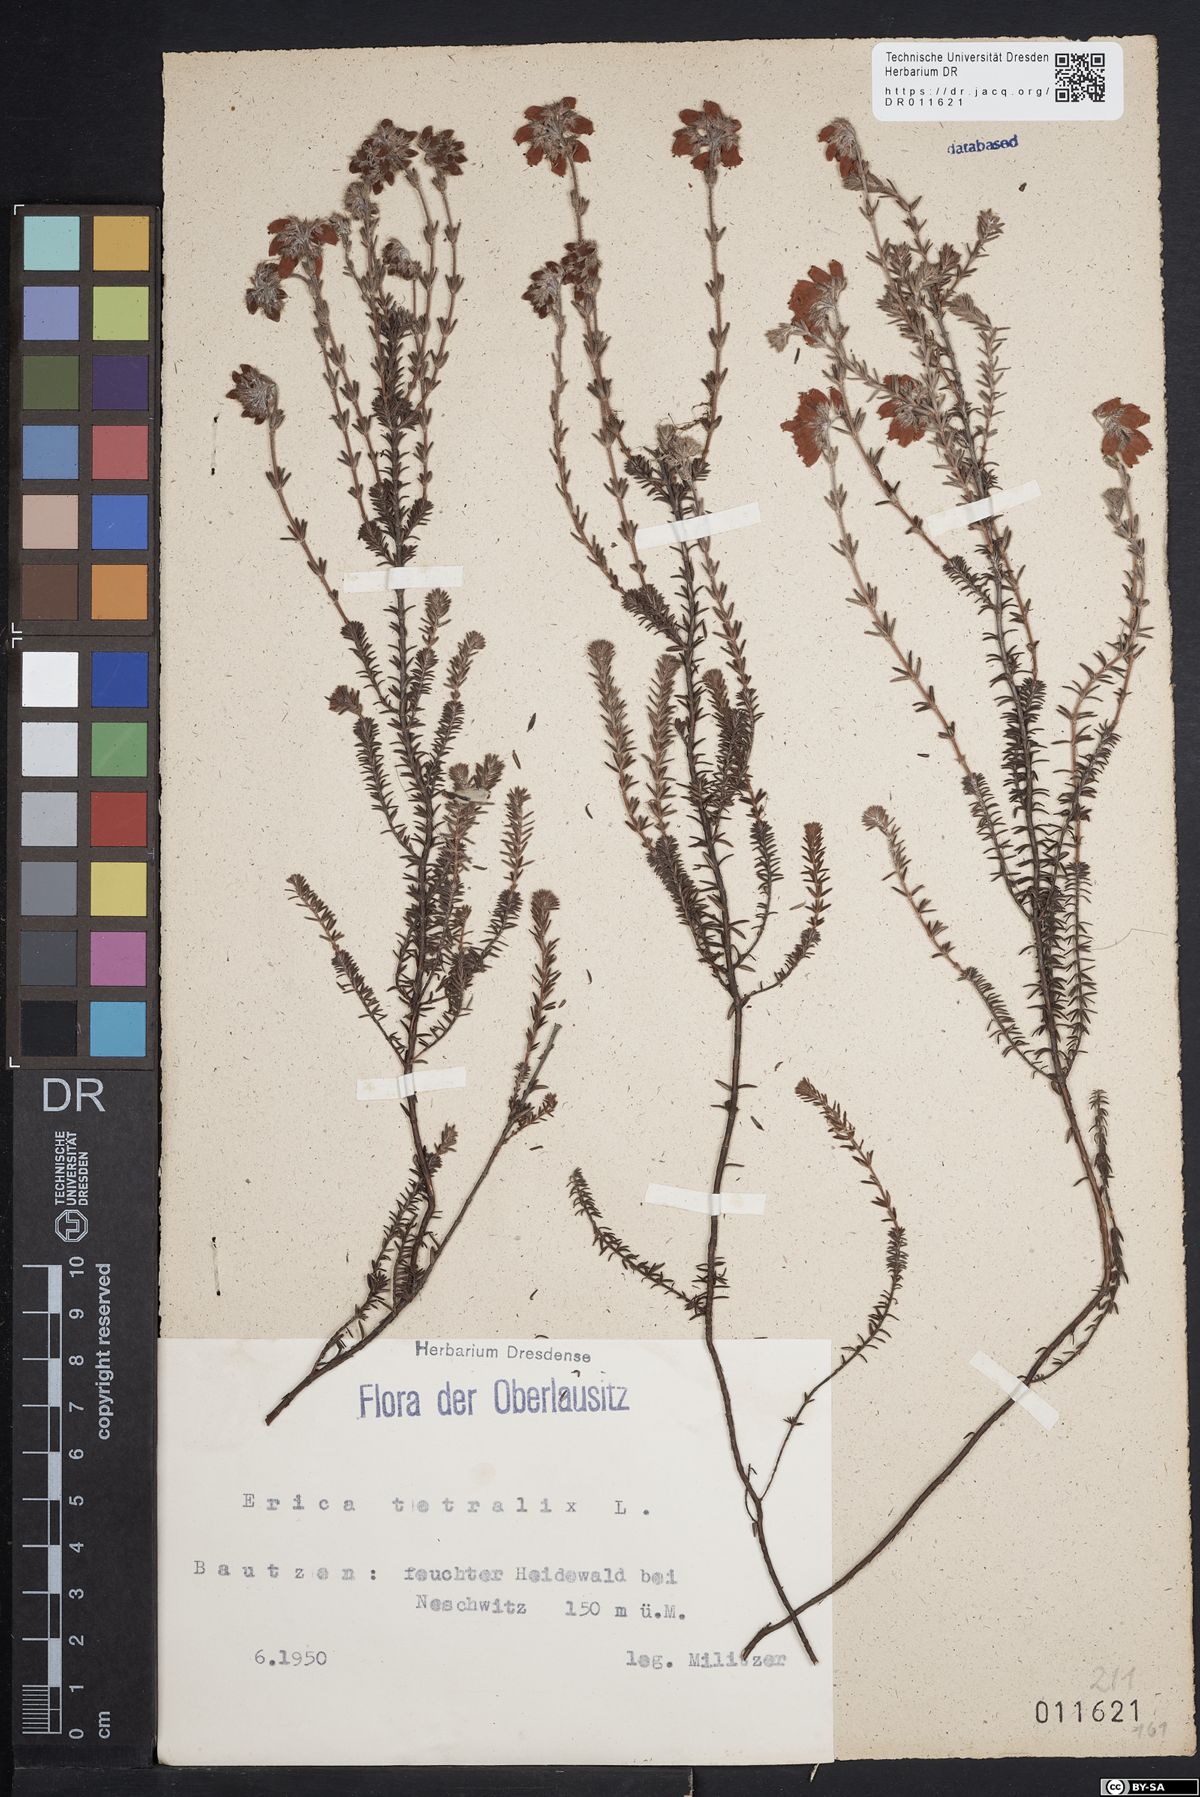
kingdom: Plantae
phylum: Tracheophyta
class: Magnoliopsida
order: Ericales
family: Ericaceae
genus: Erica
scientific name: Erica tetralix
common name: Cross-leaved heath
